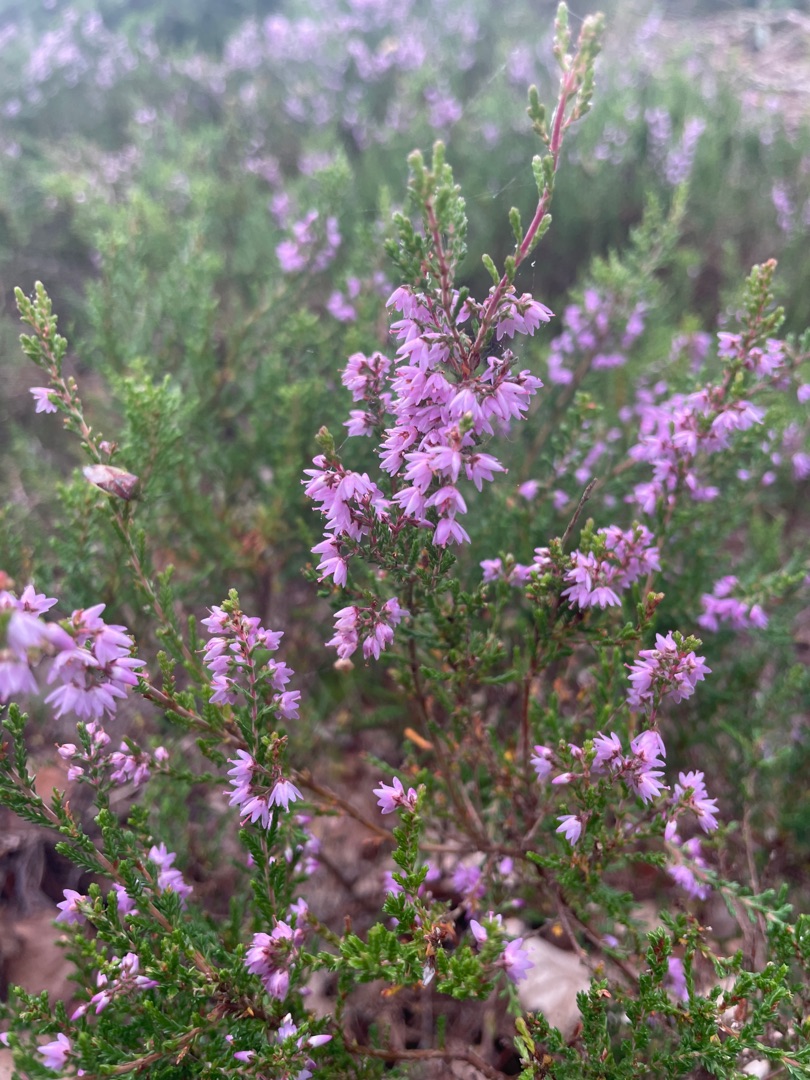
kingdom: Plantae
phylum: Tracheophyta
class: Magnoliopsida
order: Ericales
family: Ericaceae
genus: Calluna
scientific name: Calluna vulgaris
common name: Hedelyng
